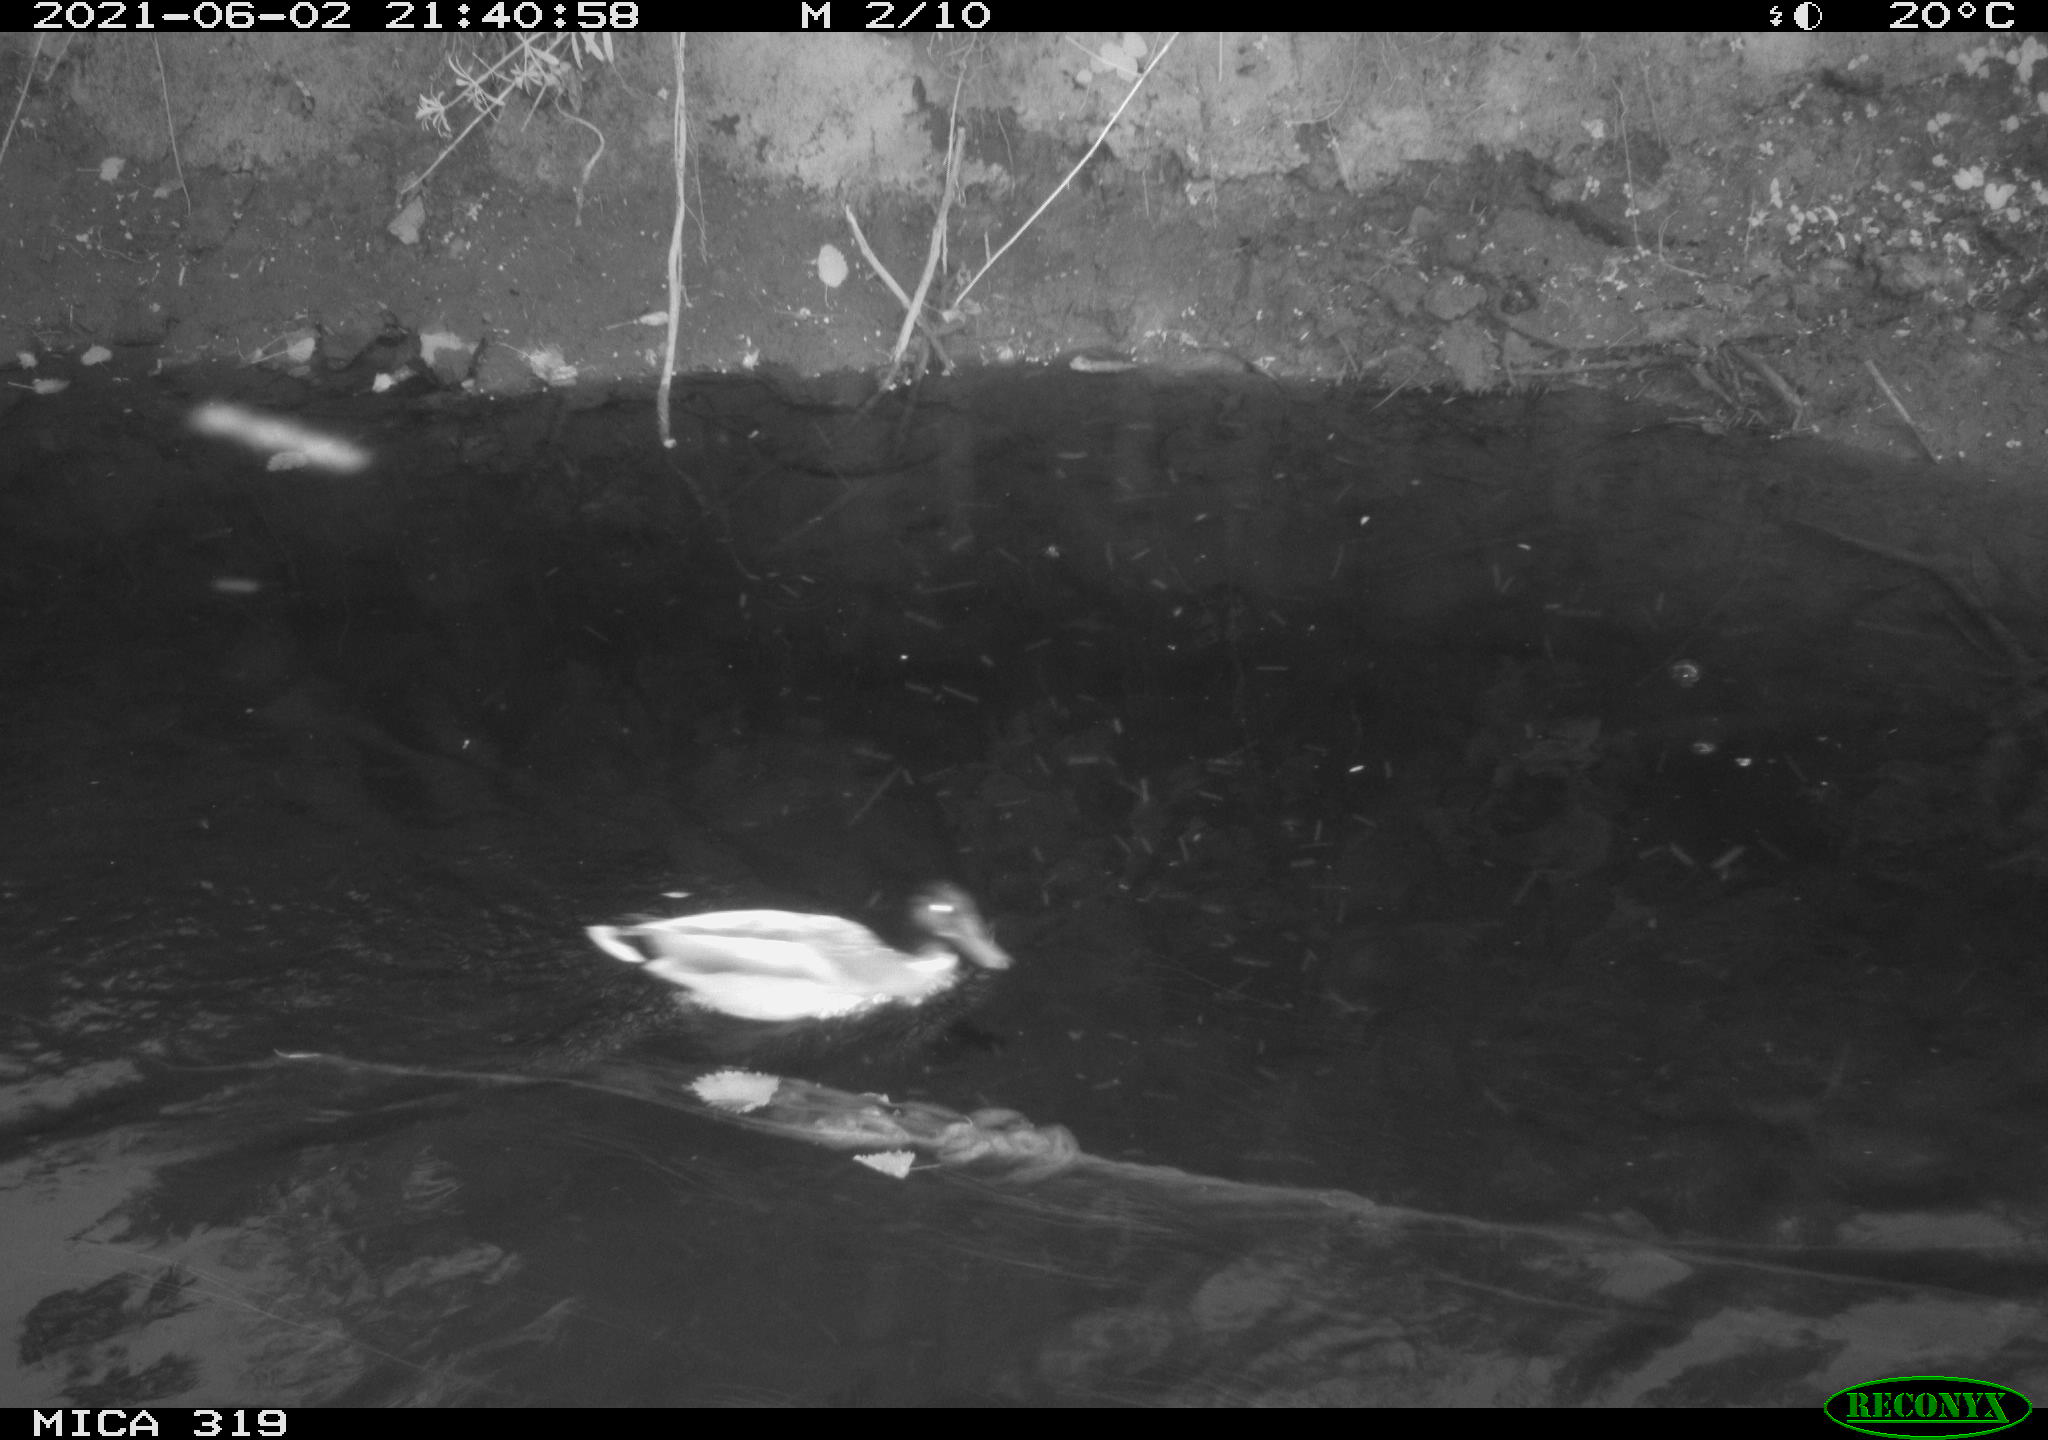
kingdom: Animalia
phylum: Chordata
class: Aves
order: Anseriformes
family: Anatidae
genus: Anas
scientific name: Anas platyrhynchos
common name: Mallard
